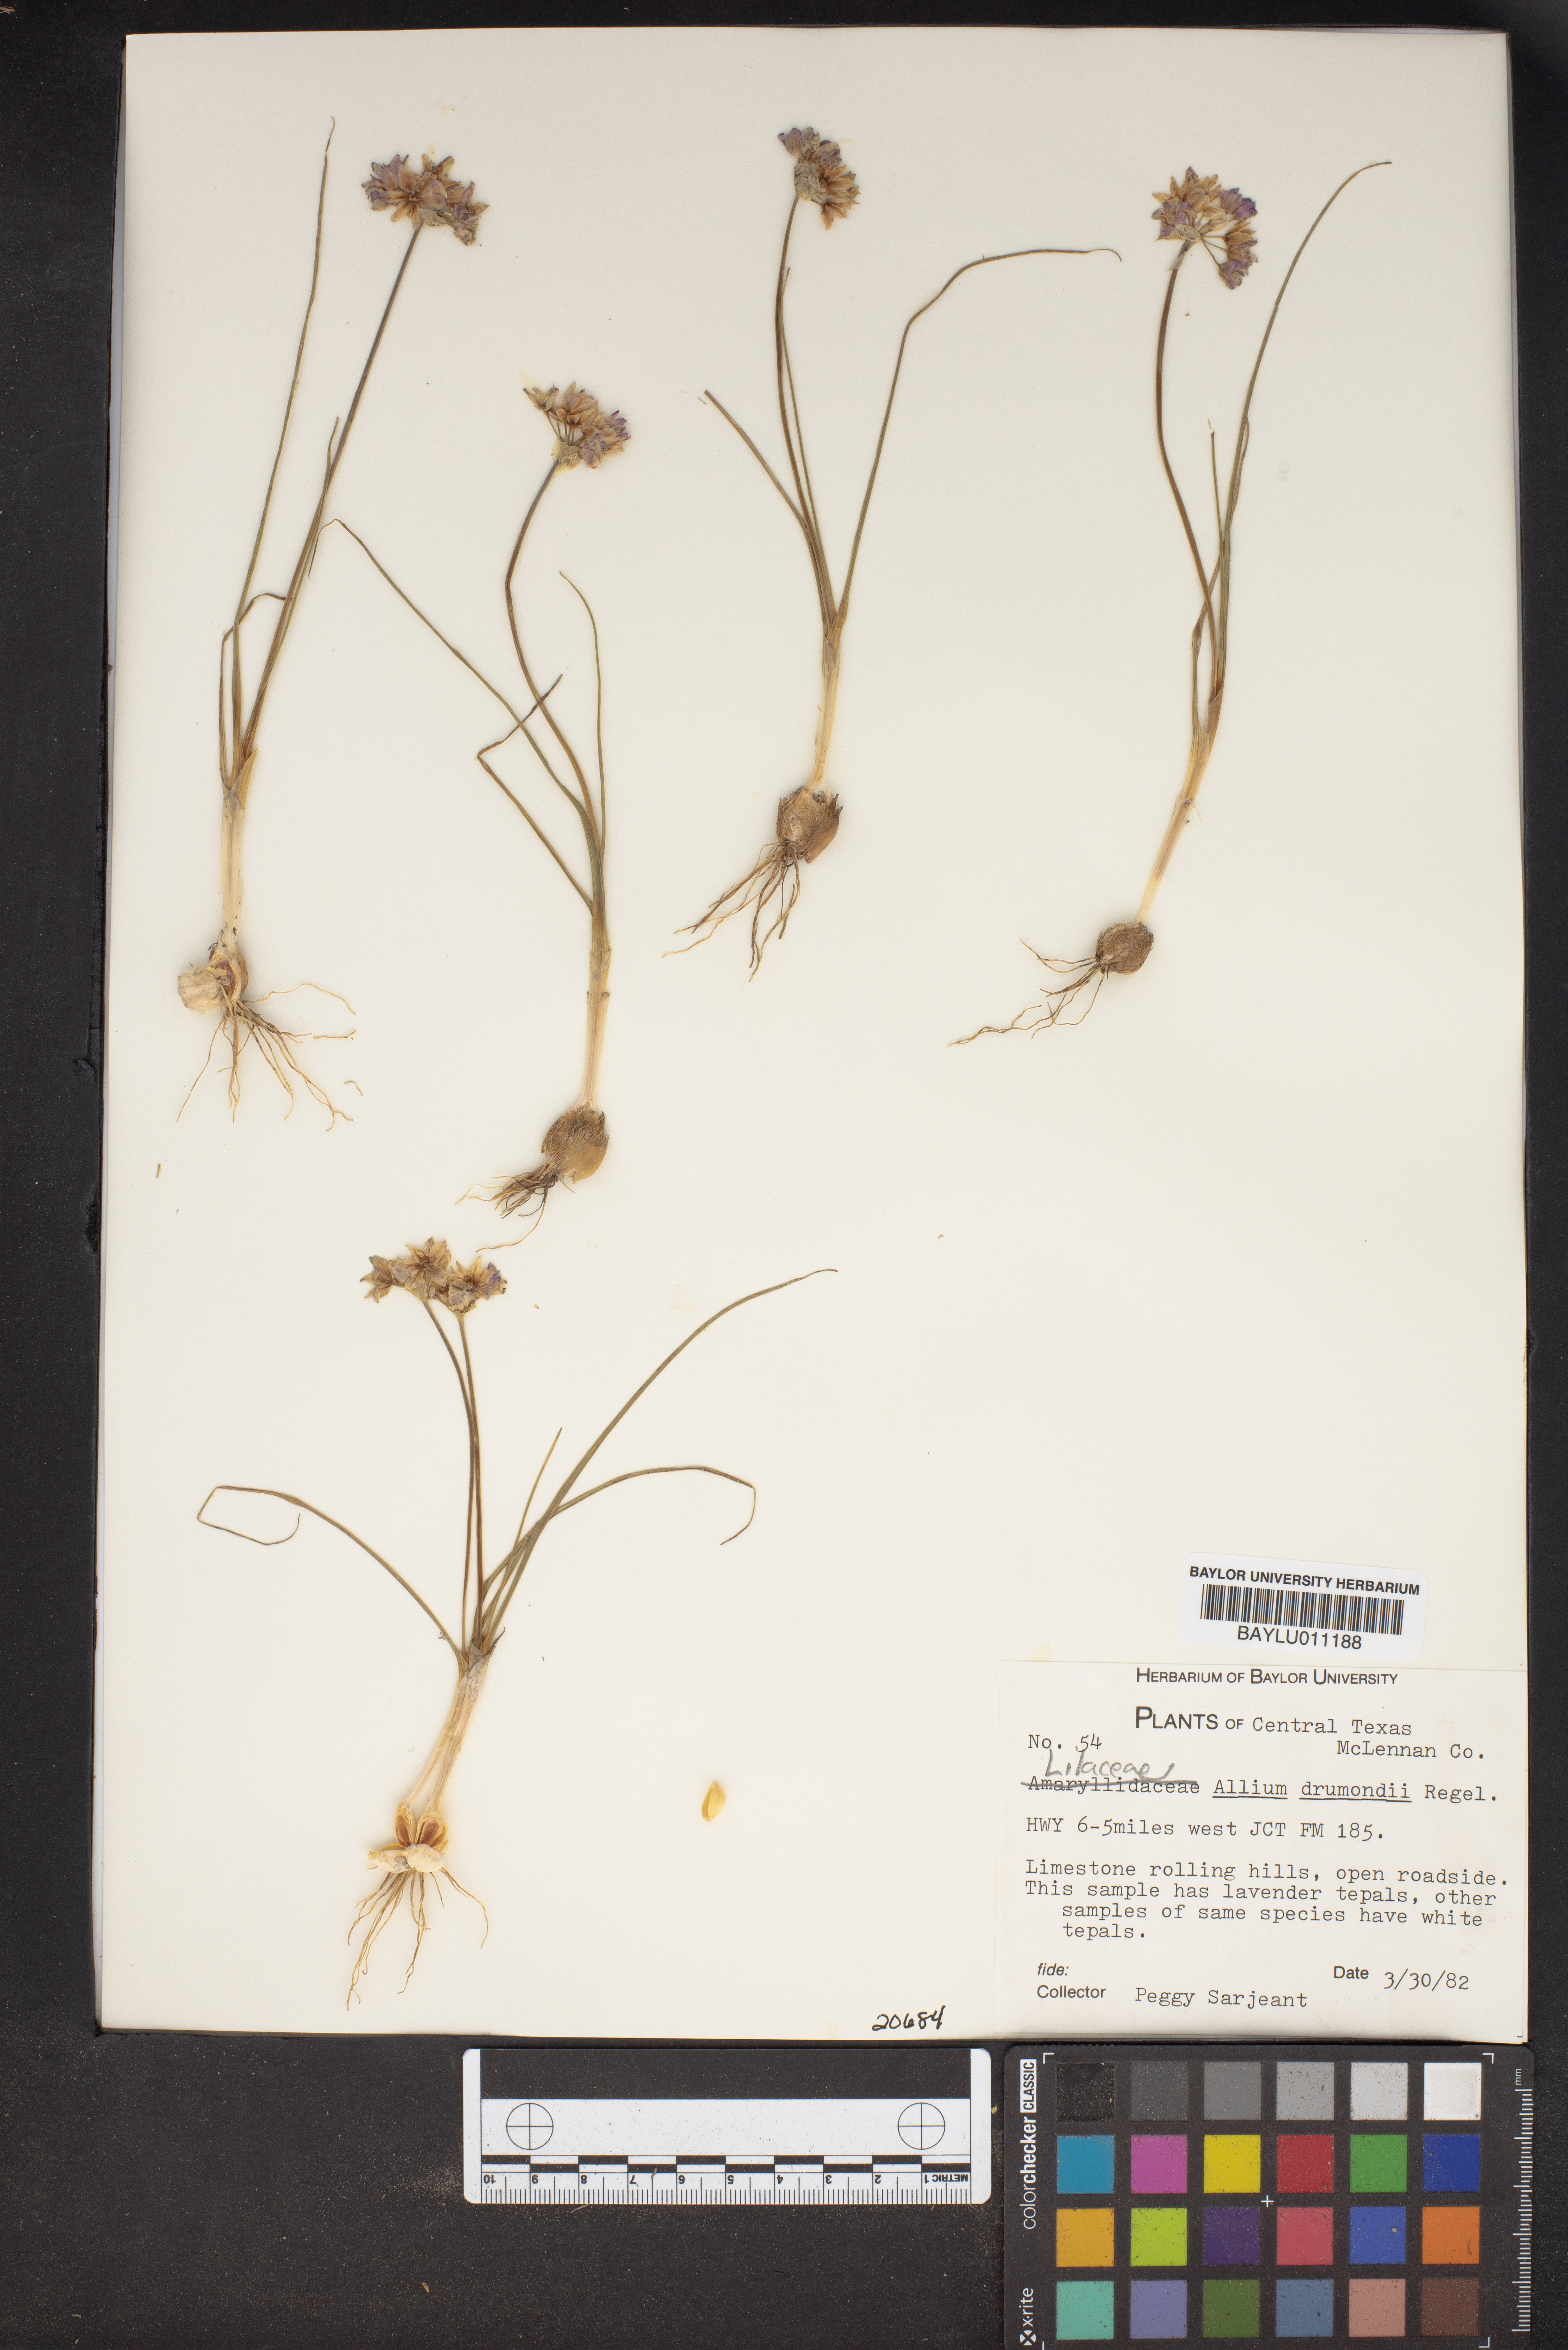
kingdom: Plantae
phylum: Tracheophyta
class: Liliopsida
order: Asparagales
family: Amaryllidaceae
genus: Allium
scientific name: Allium drummondii
